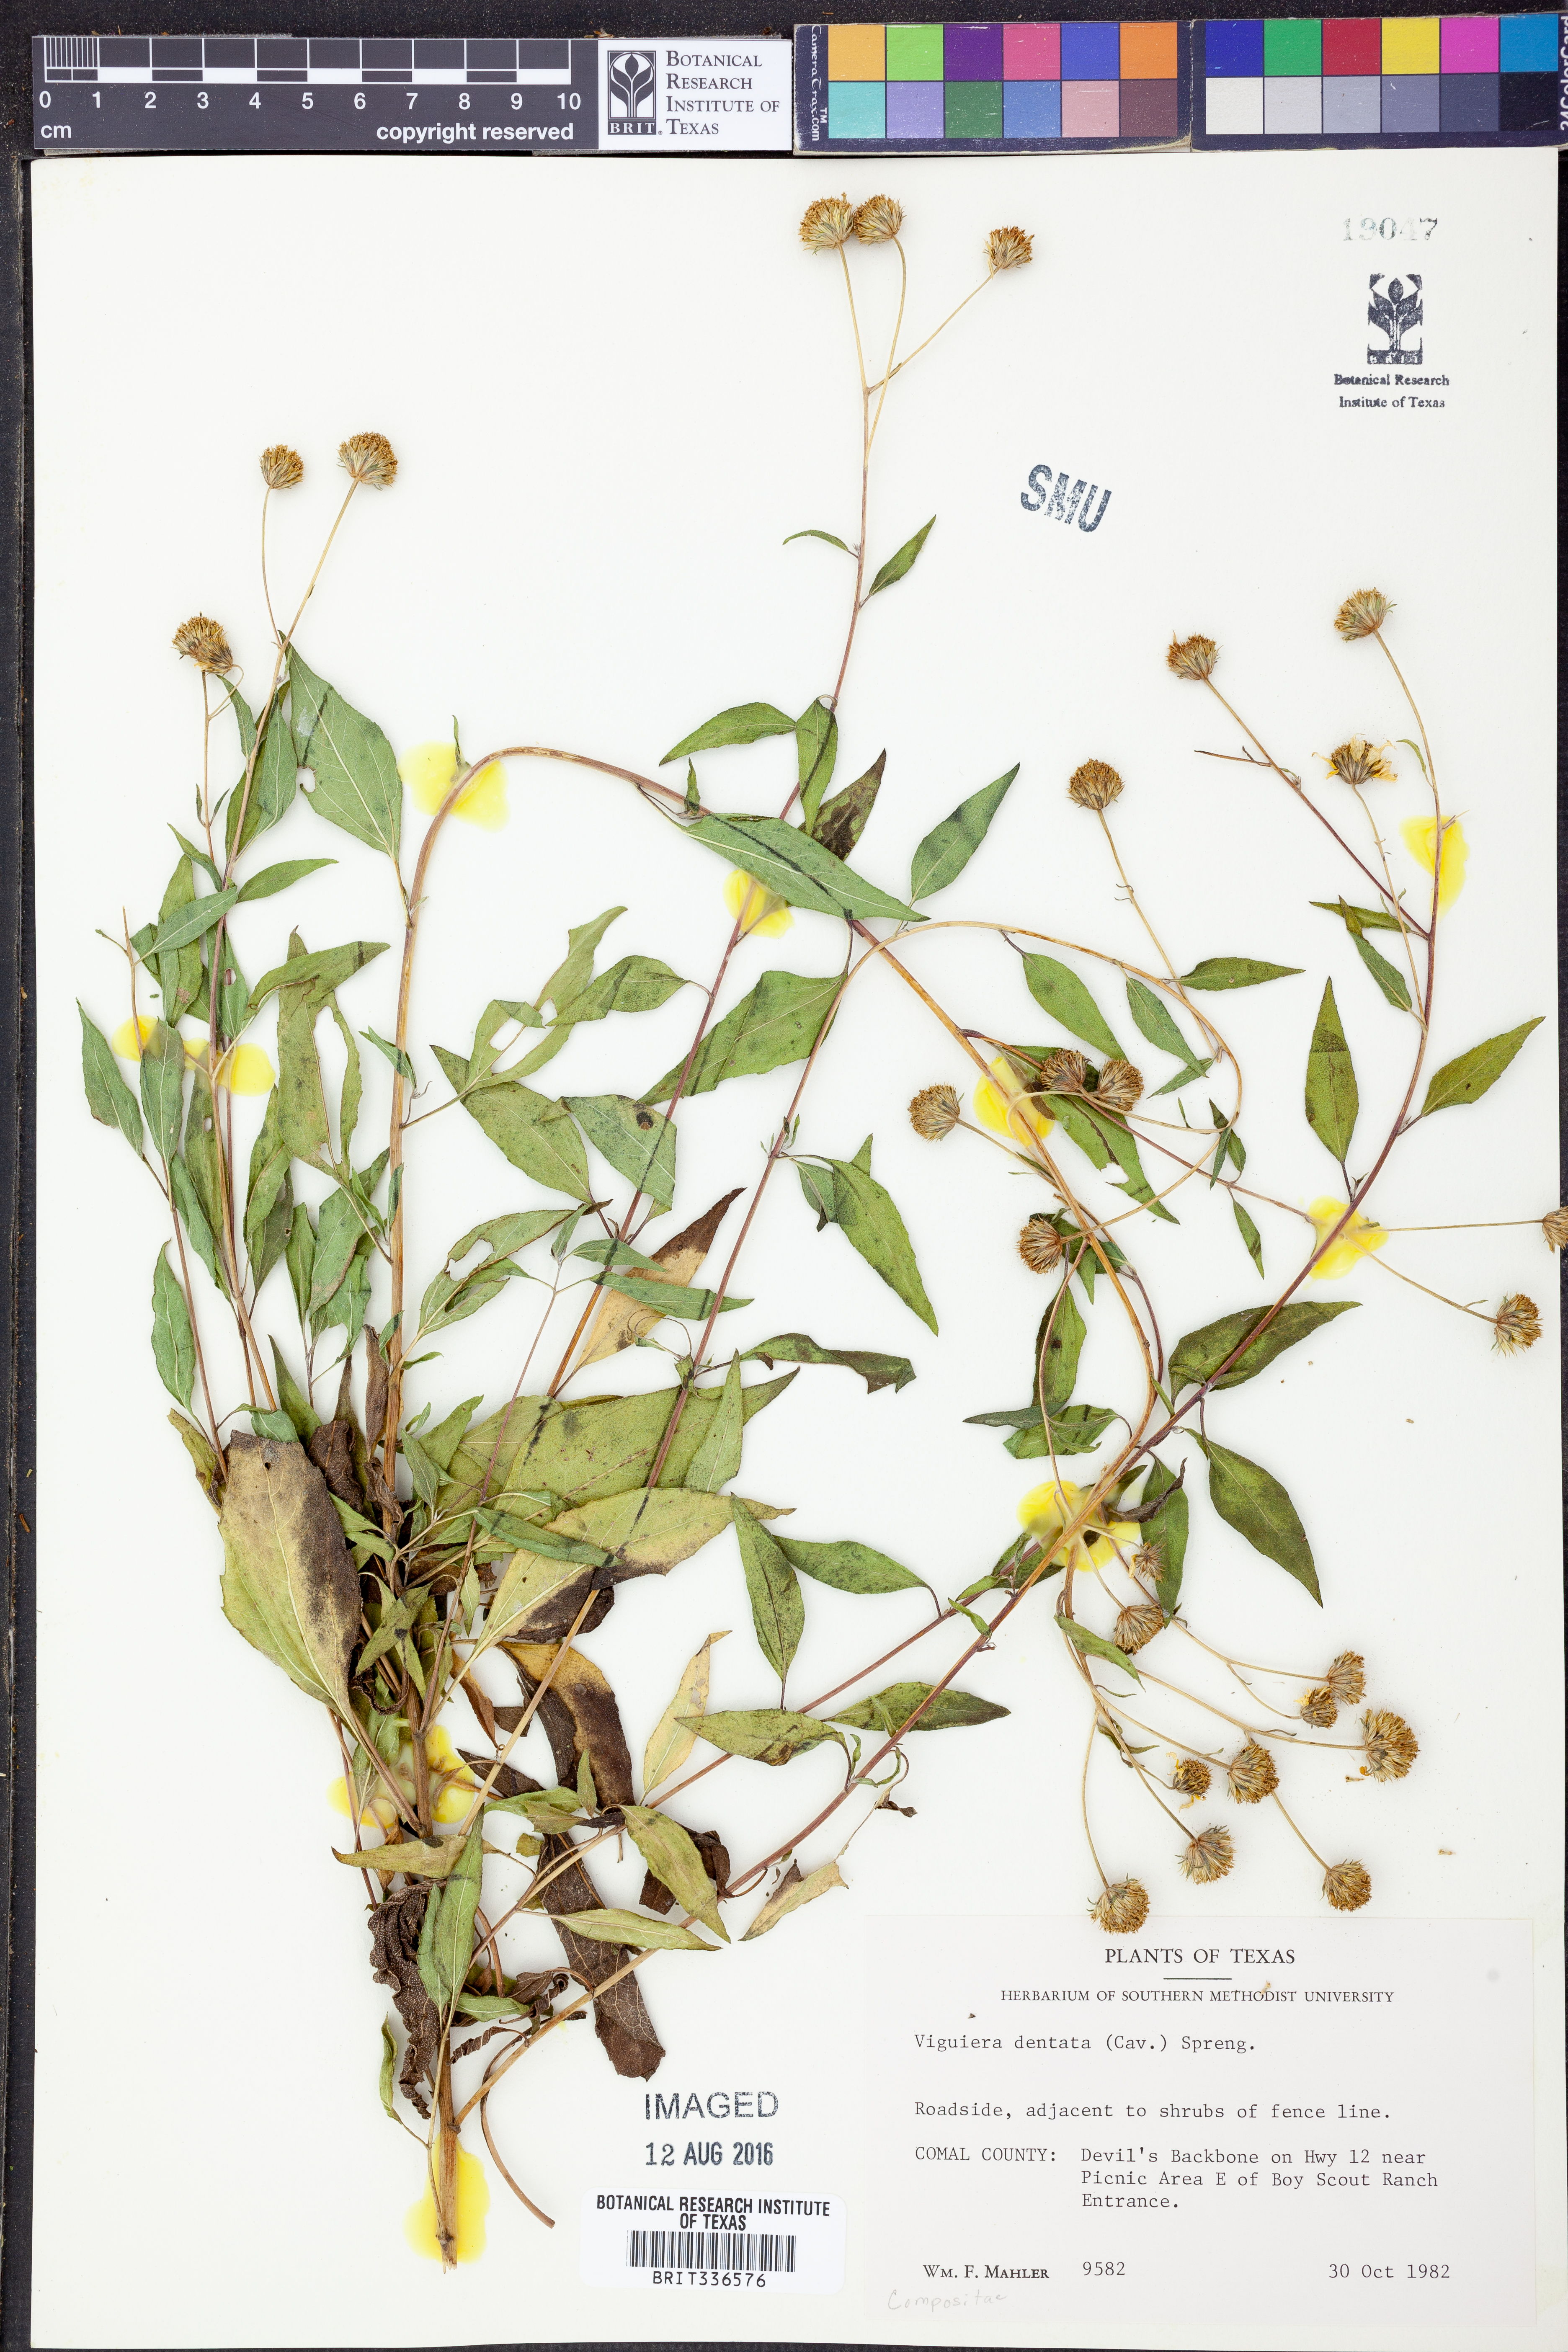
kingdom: Plantae
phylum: Tracheophyta
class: Magnoliopsida
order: Asterales
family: Asteraceae
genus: Viguiera
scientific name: Viguiera dentata
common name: Toothleaf
